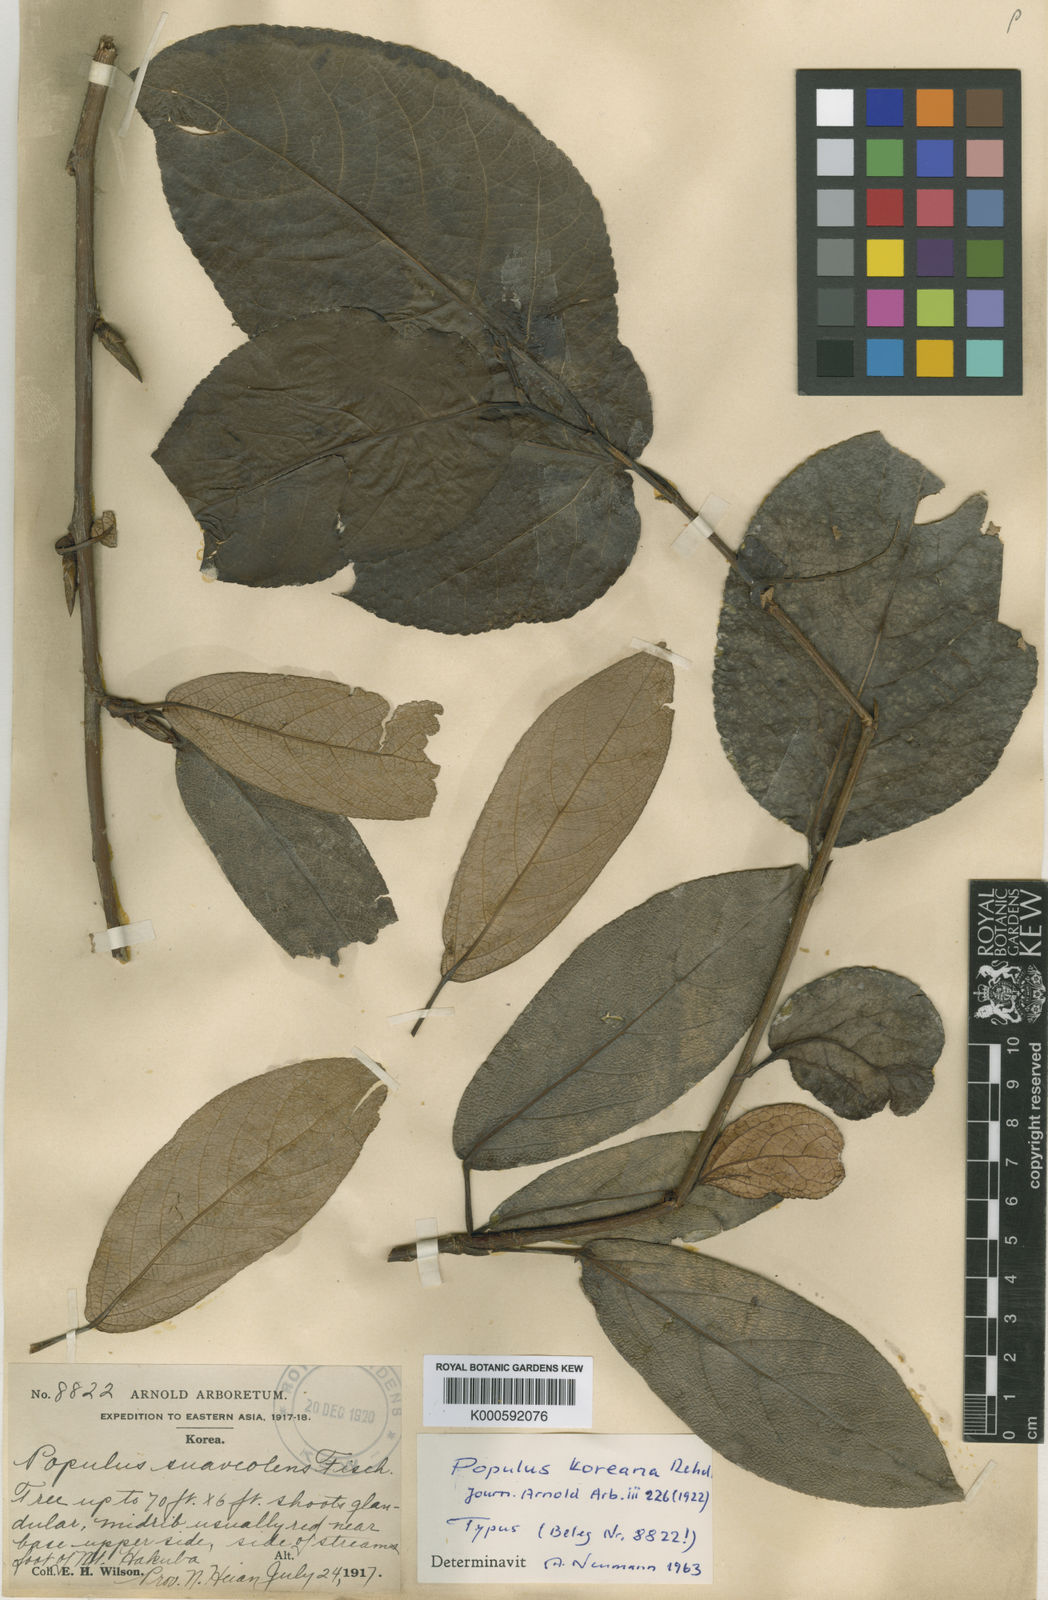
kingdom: Plantae
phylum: Tracheophyta
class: Magnoliopsida
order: Malpighiales
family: Salicaceae
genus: Populus
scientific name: Populus suaveolens
